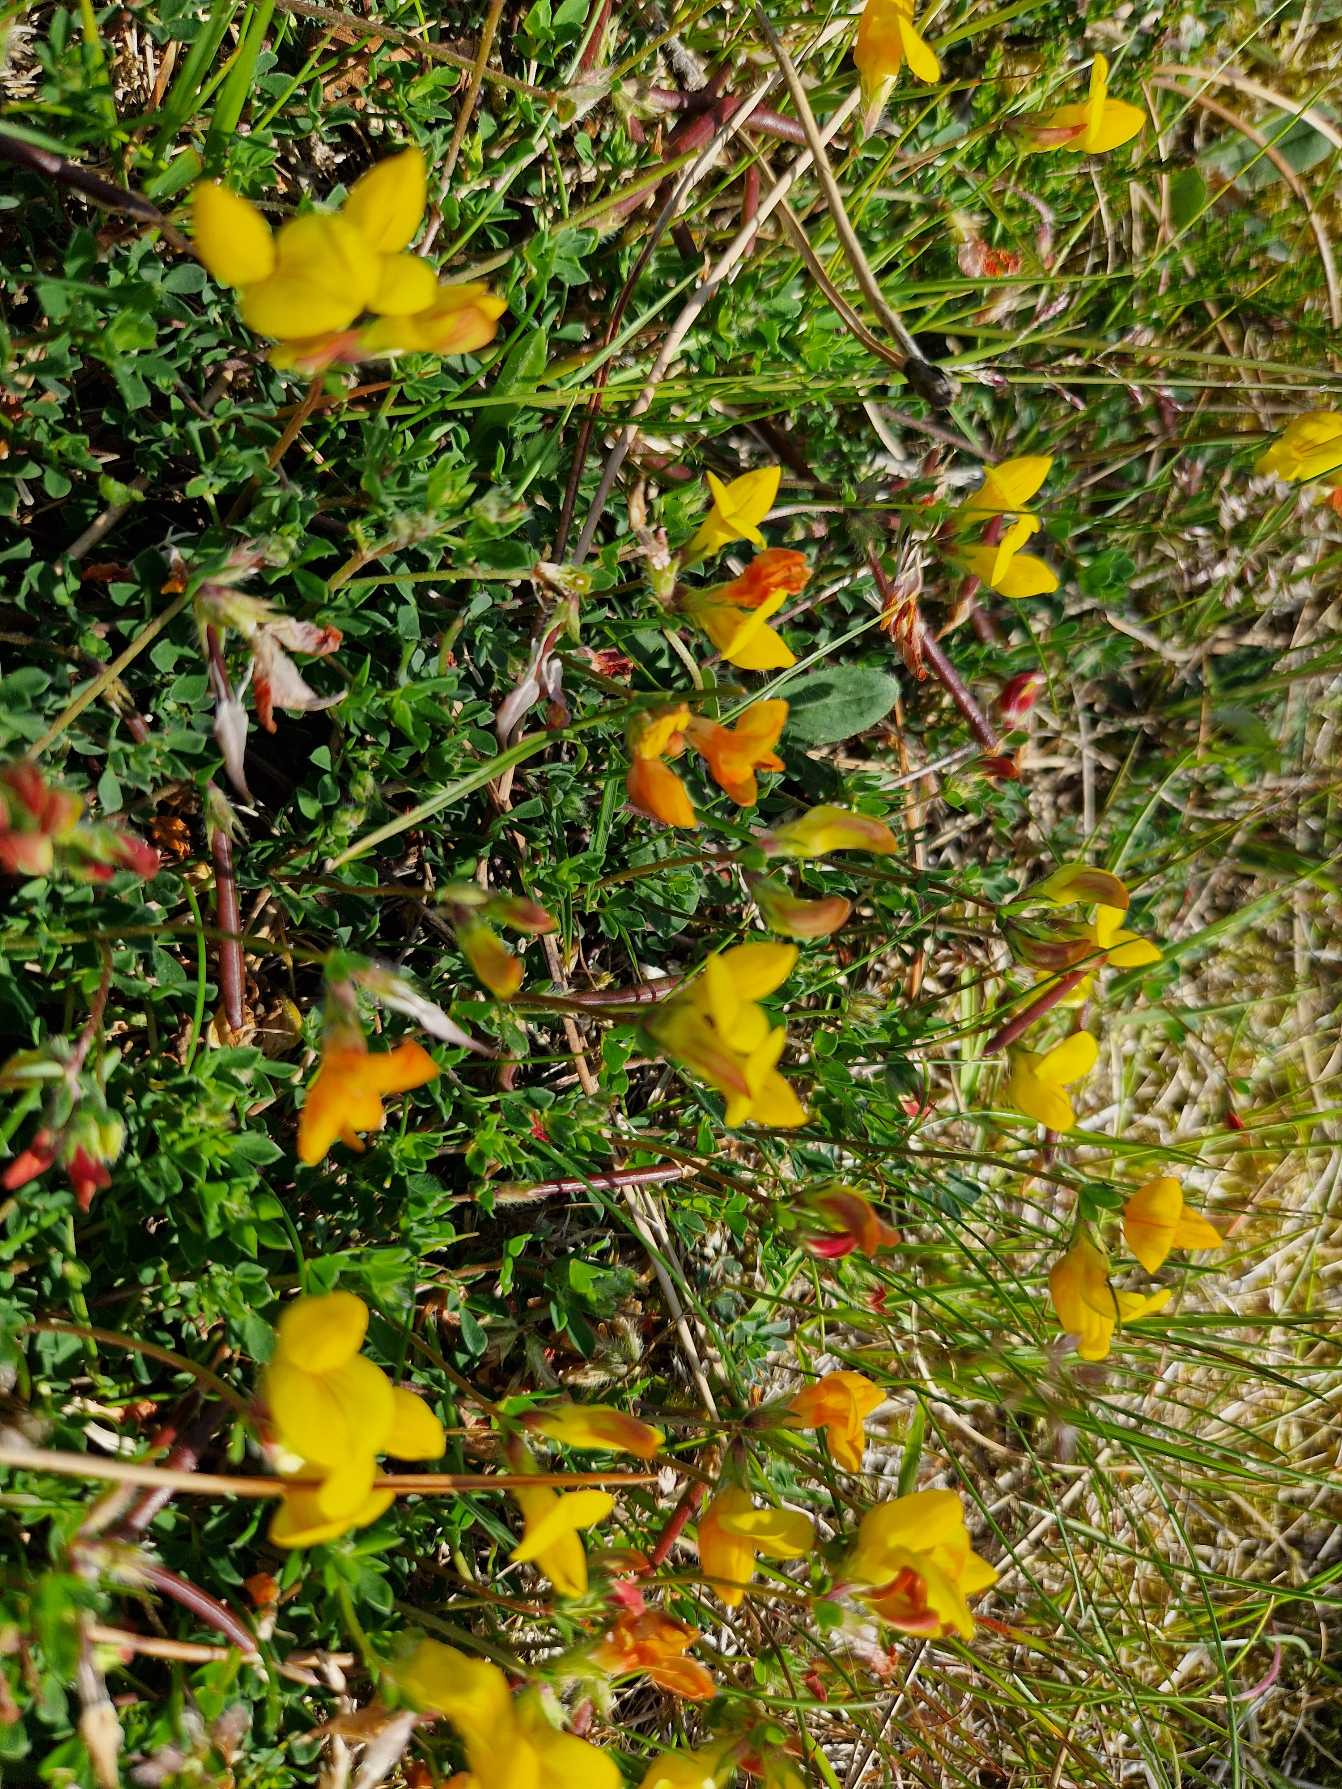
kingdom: Plantae
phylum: Tracheophyta
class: Magnoliopsida
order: Fabales
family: Fabaceae
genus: Lotus
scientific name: Lotus corniculatus
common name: Almindelig kællingetand
